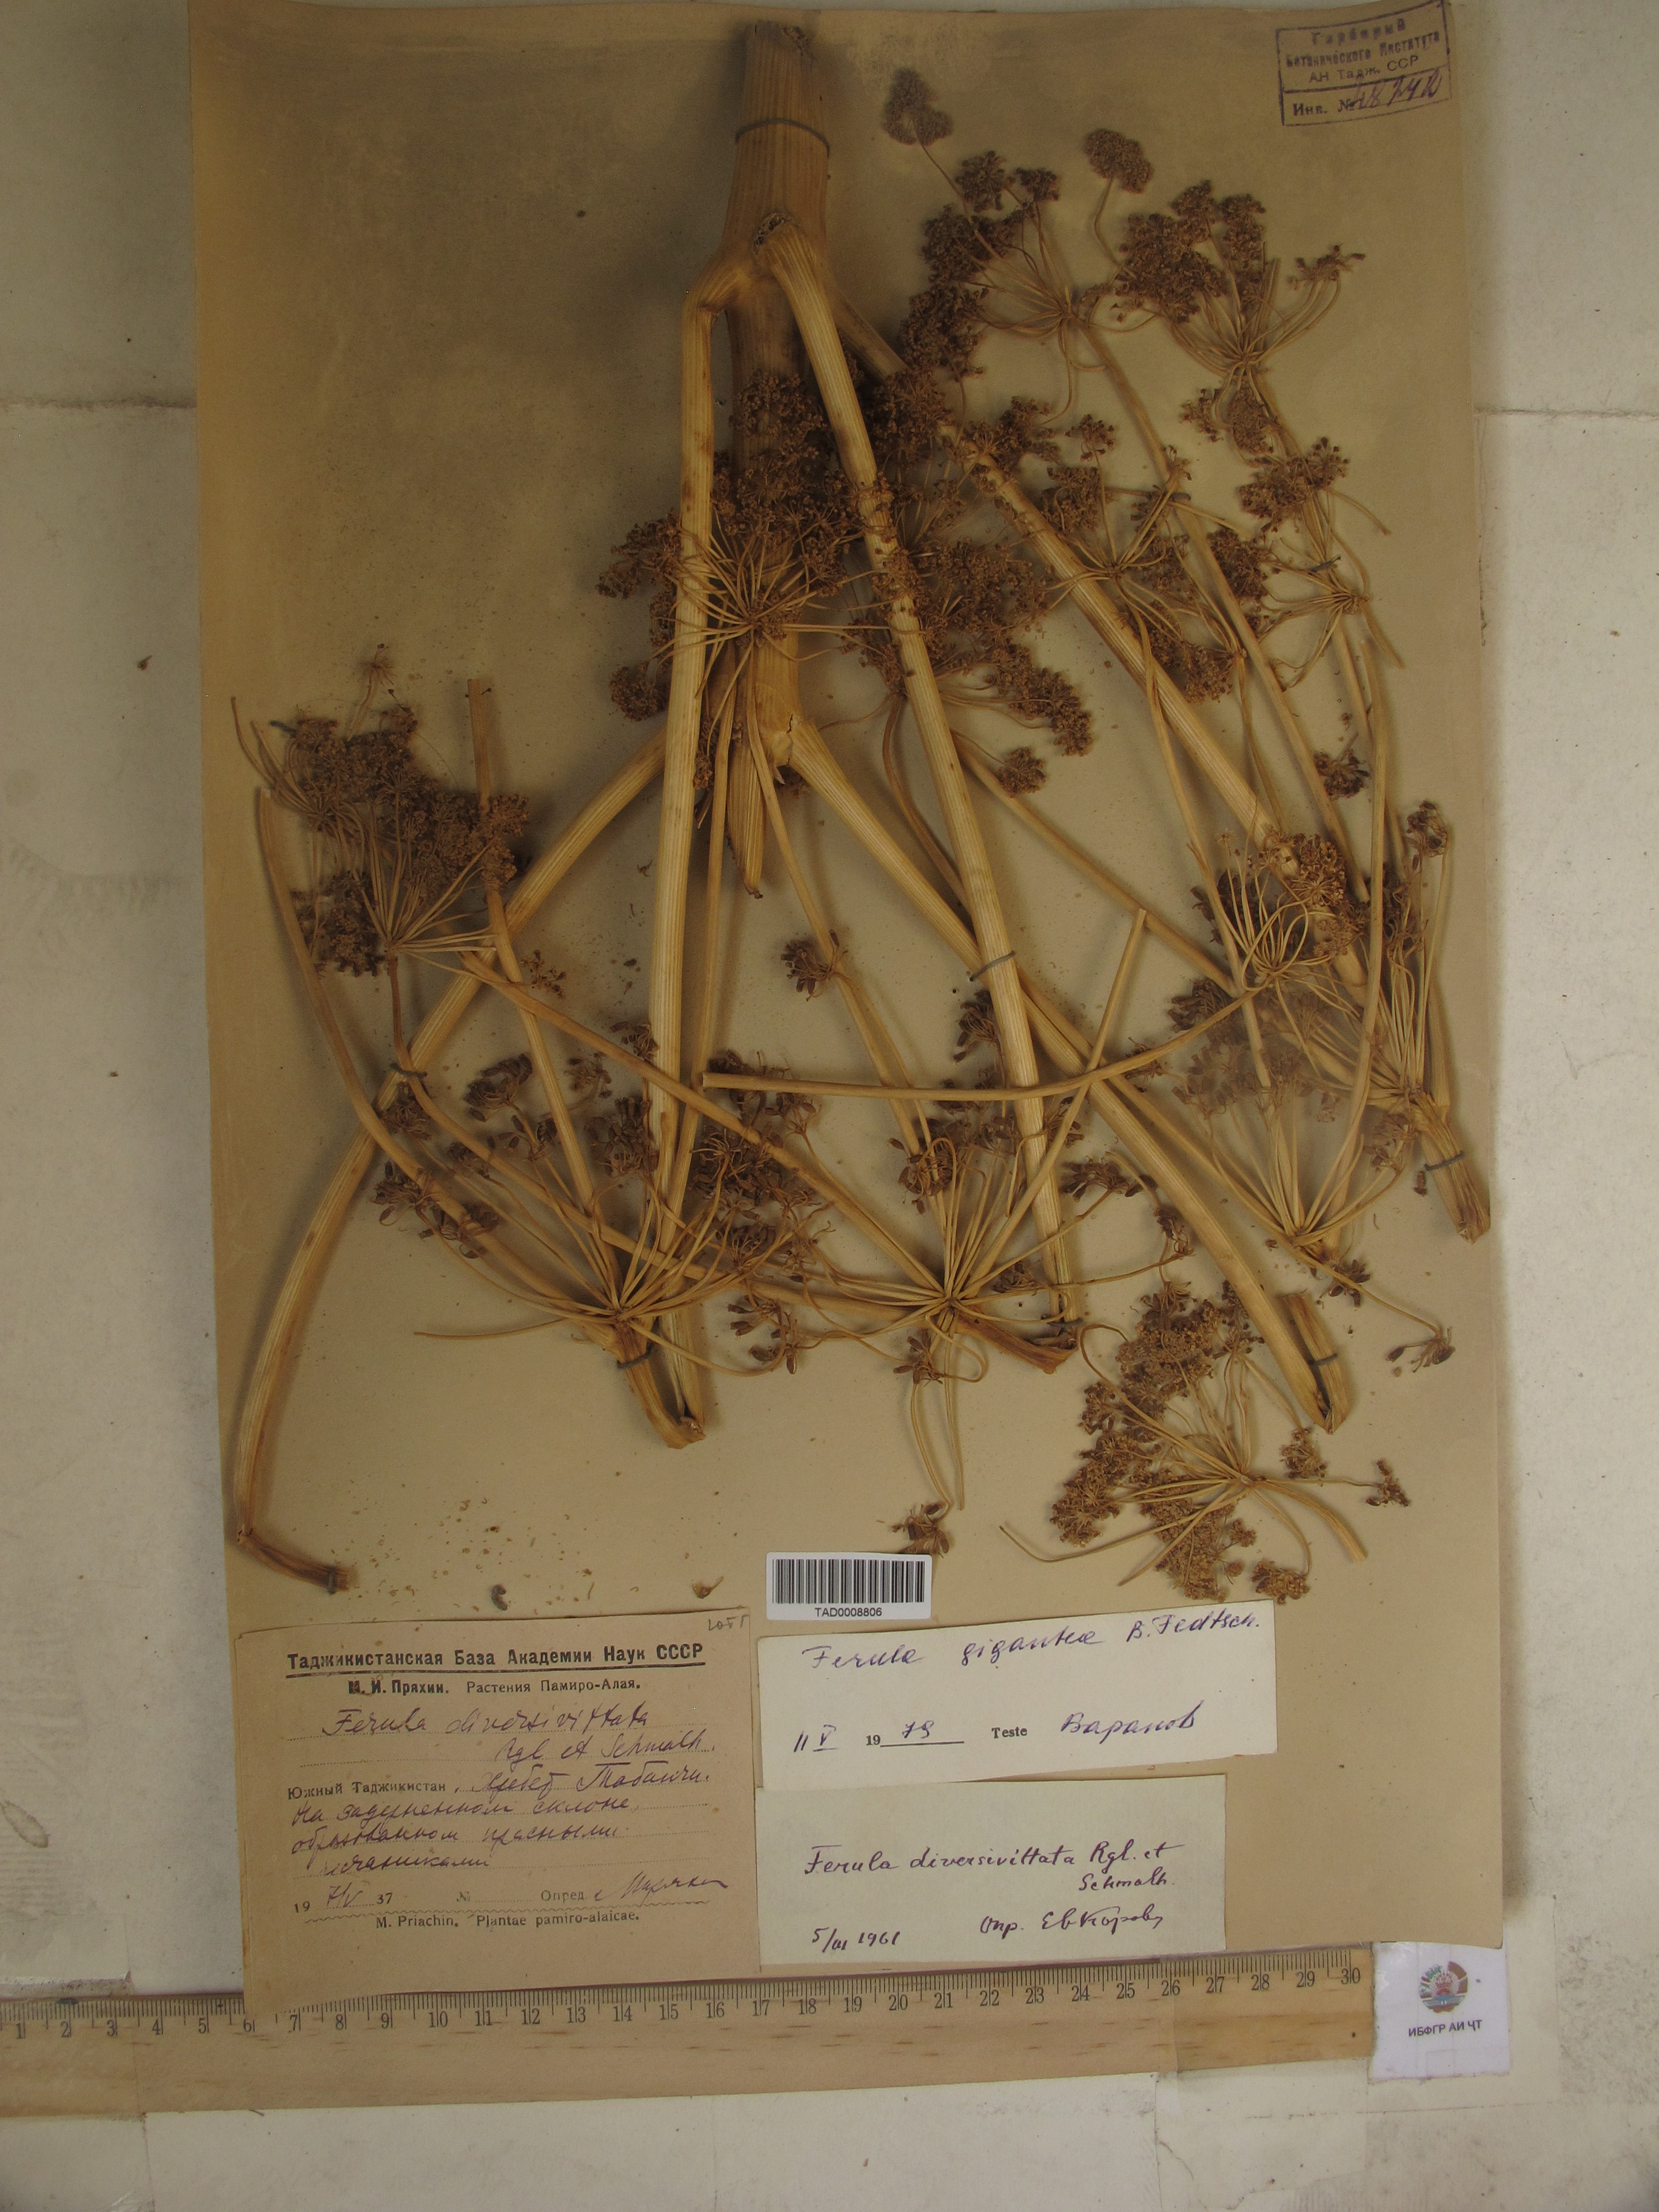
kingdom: Plantae
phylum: Tracheophyta
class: Magnoliopsida
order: Apiales
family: Apiaceae
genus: Ferula
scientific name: Ferula gigantea
